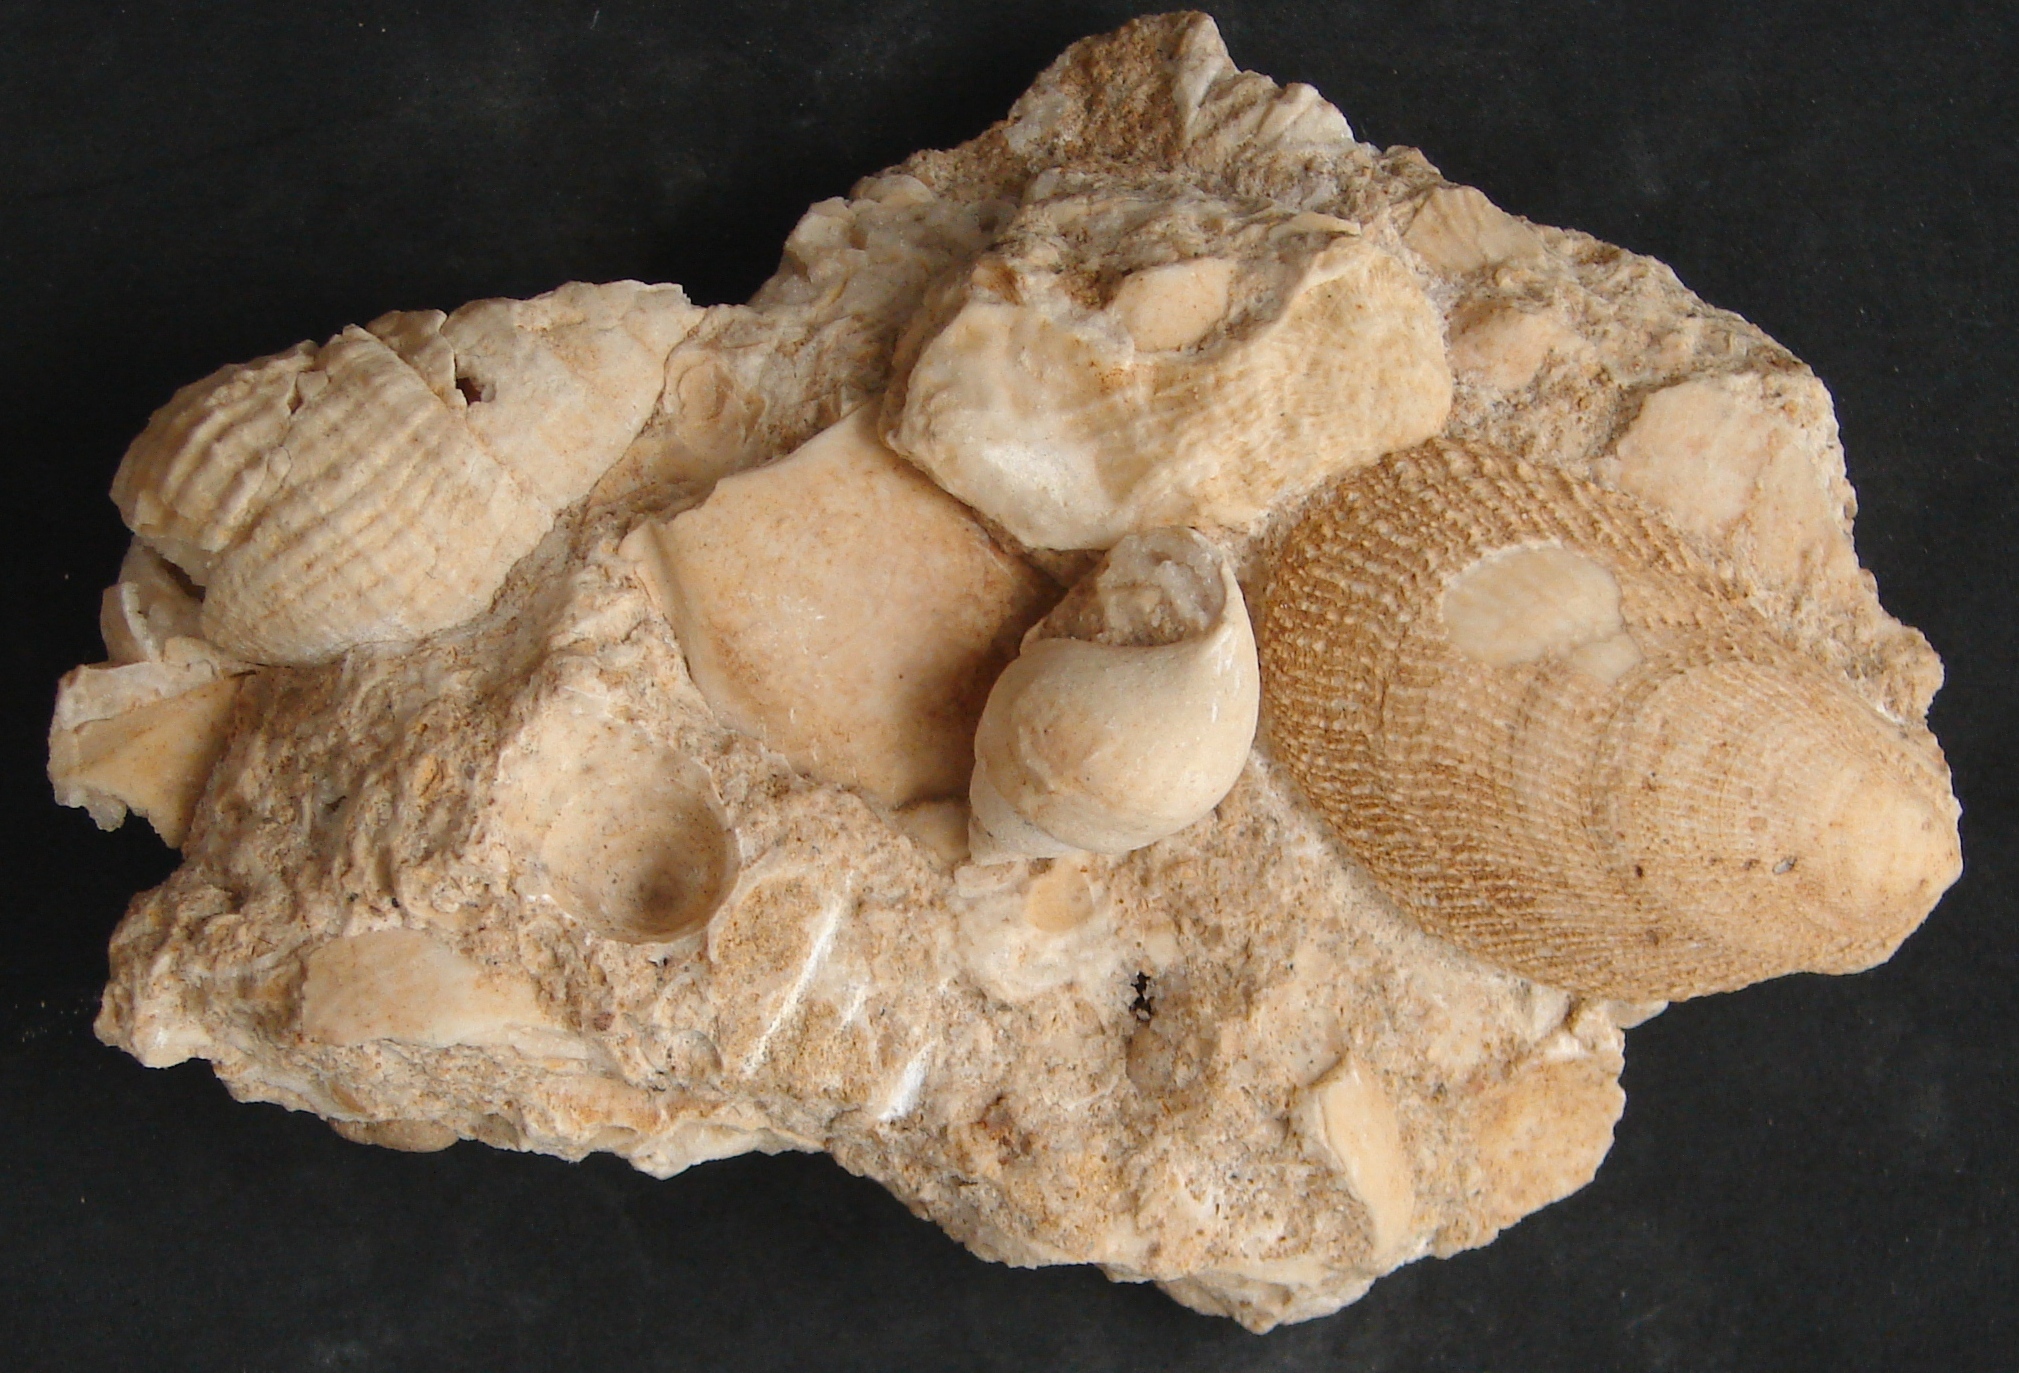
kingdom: Animalia
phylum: Mollusca
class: Bivalvia
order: Limida
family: Limidae
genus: Antiquilima
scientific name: Antiquilima nodulosa
